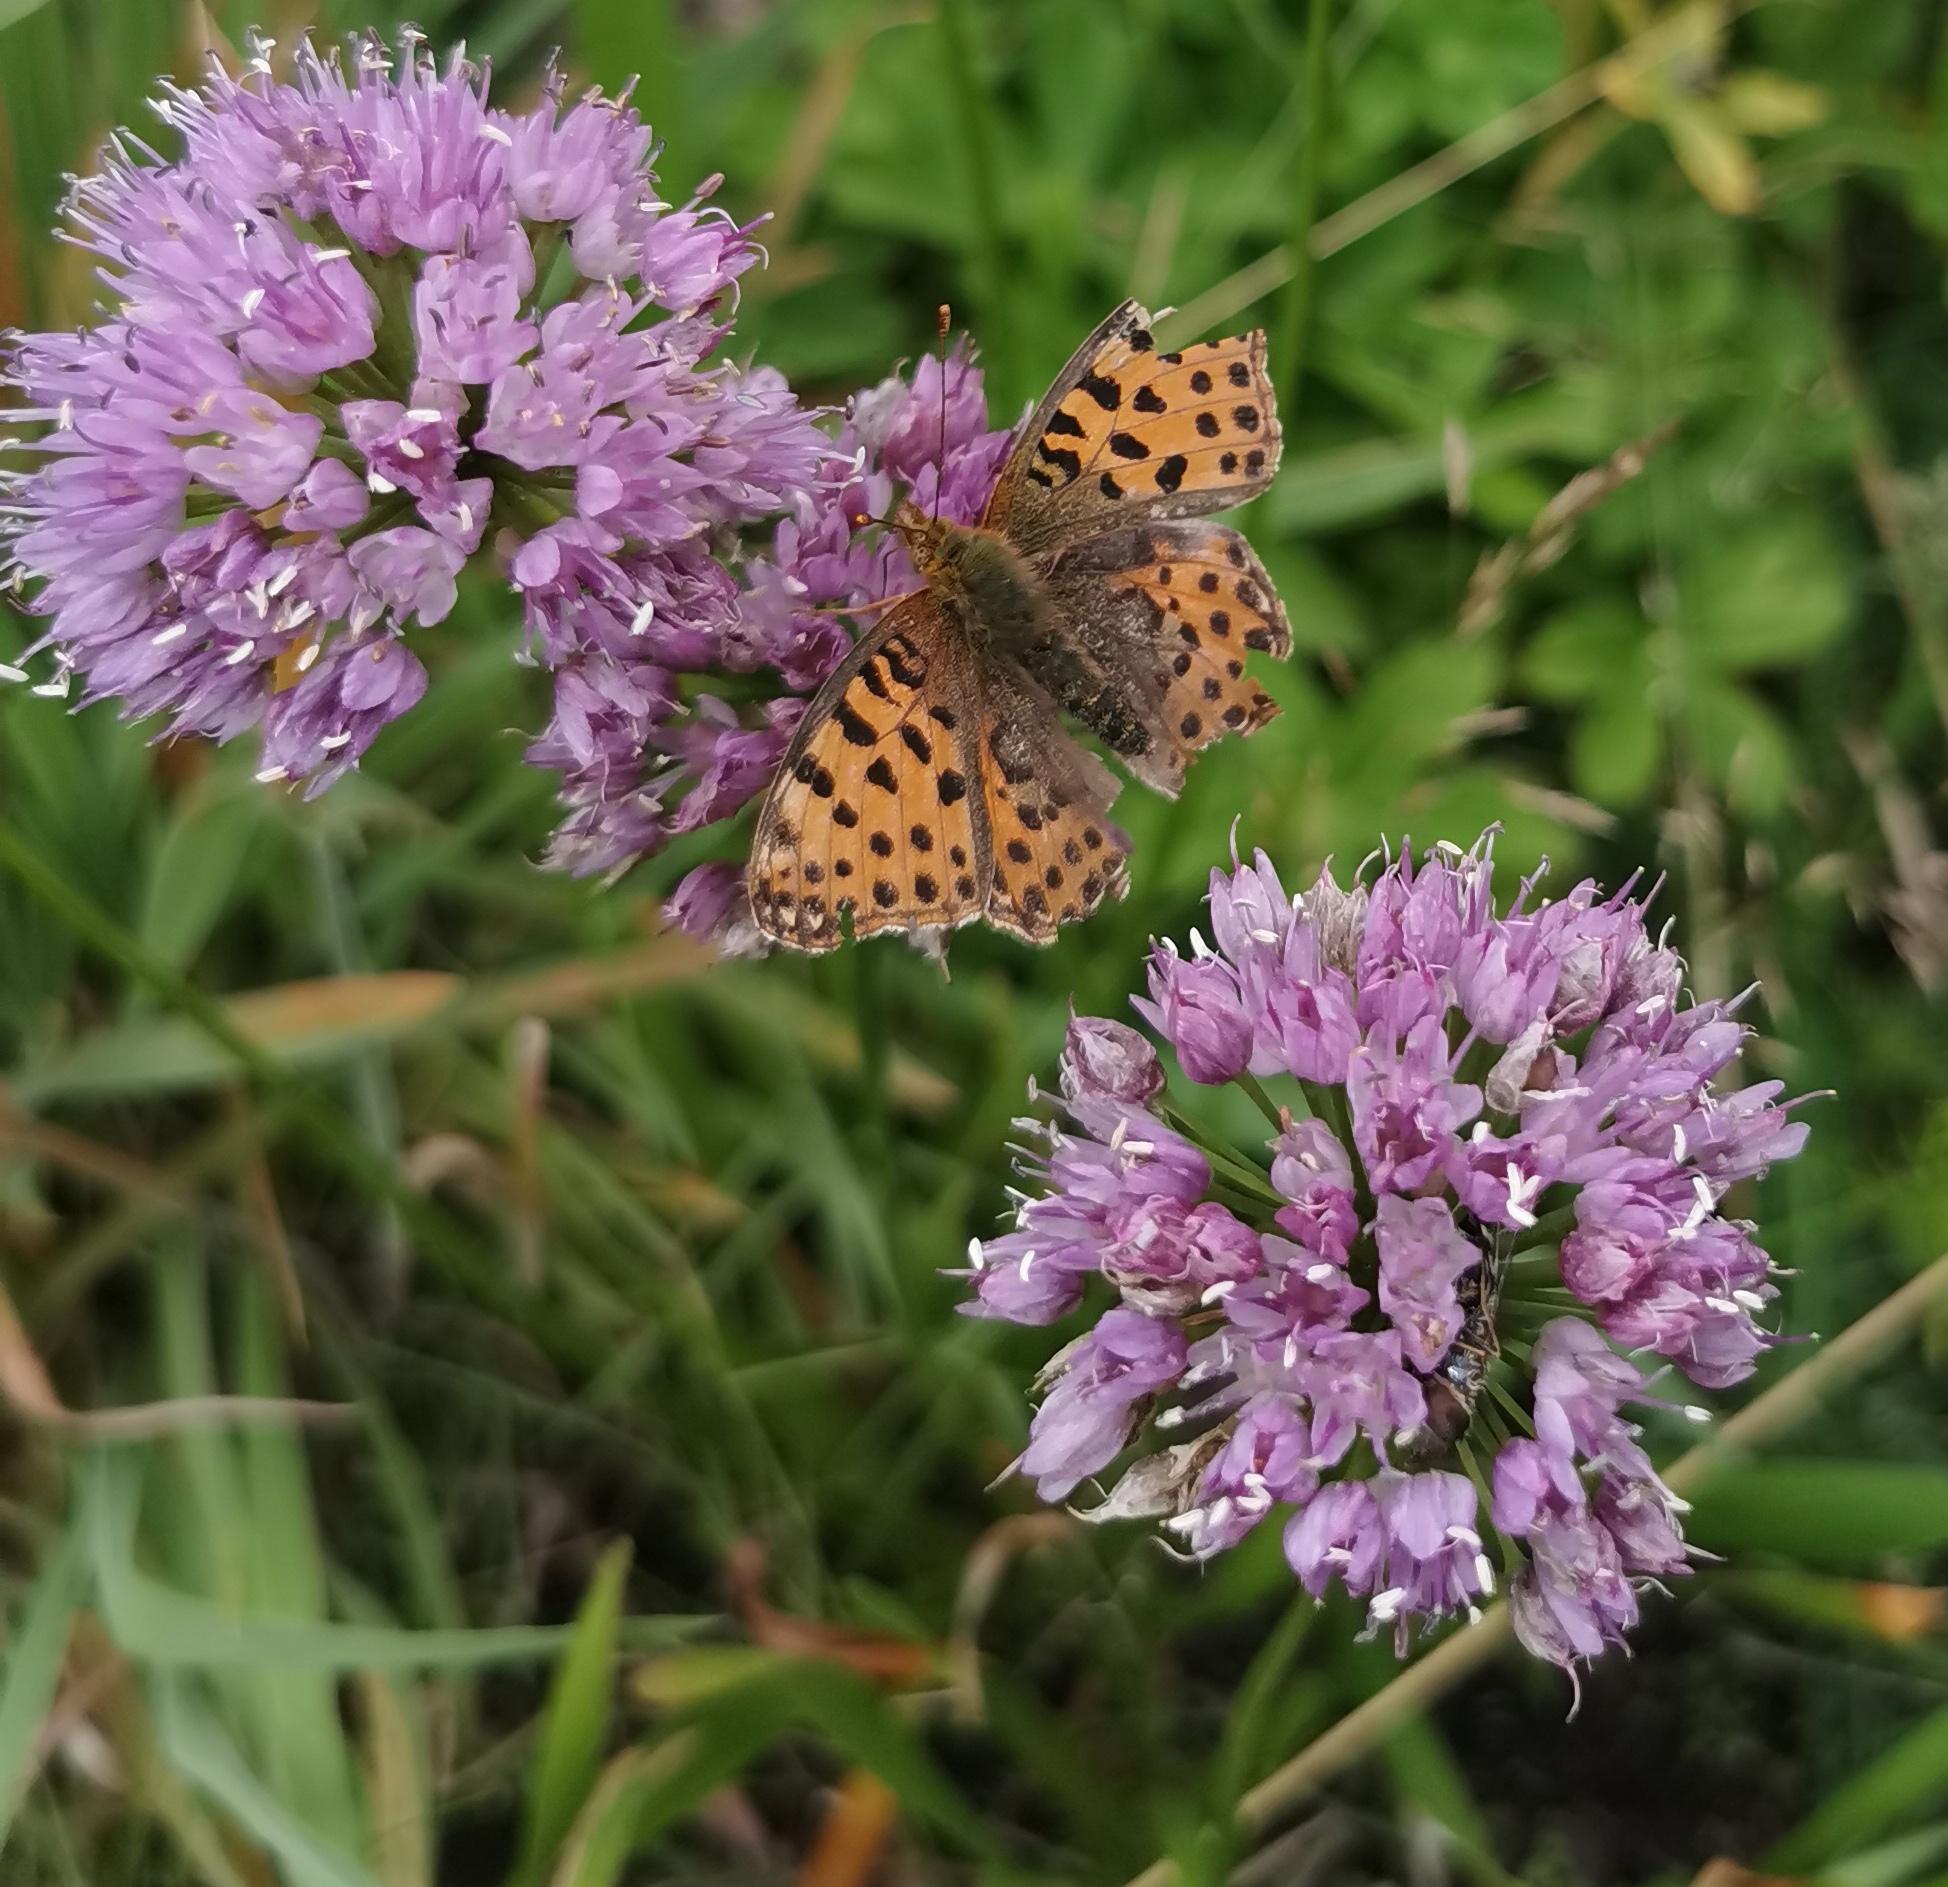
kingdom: Animalia
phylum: Arthropoda
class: Insecta
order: Lepidoptera
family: Nymphalidae
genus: Issoria
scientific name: Issoria lathonia
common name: Storplettet perlemorsommerfugl
